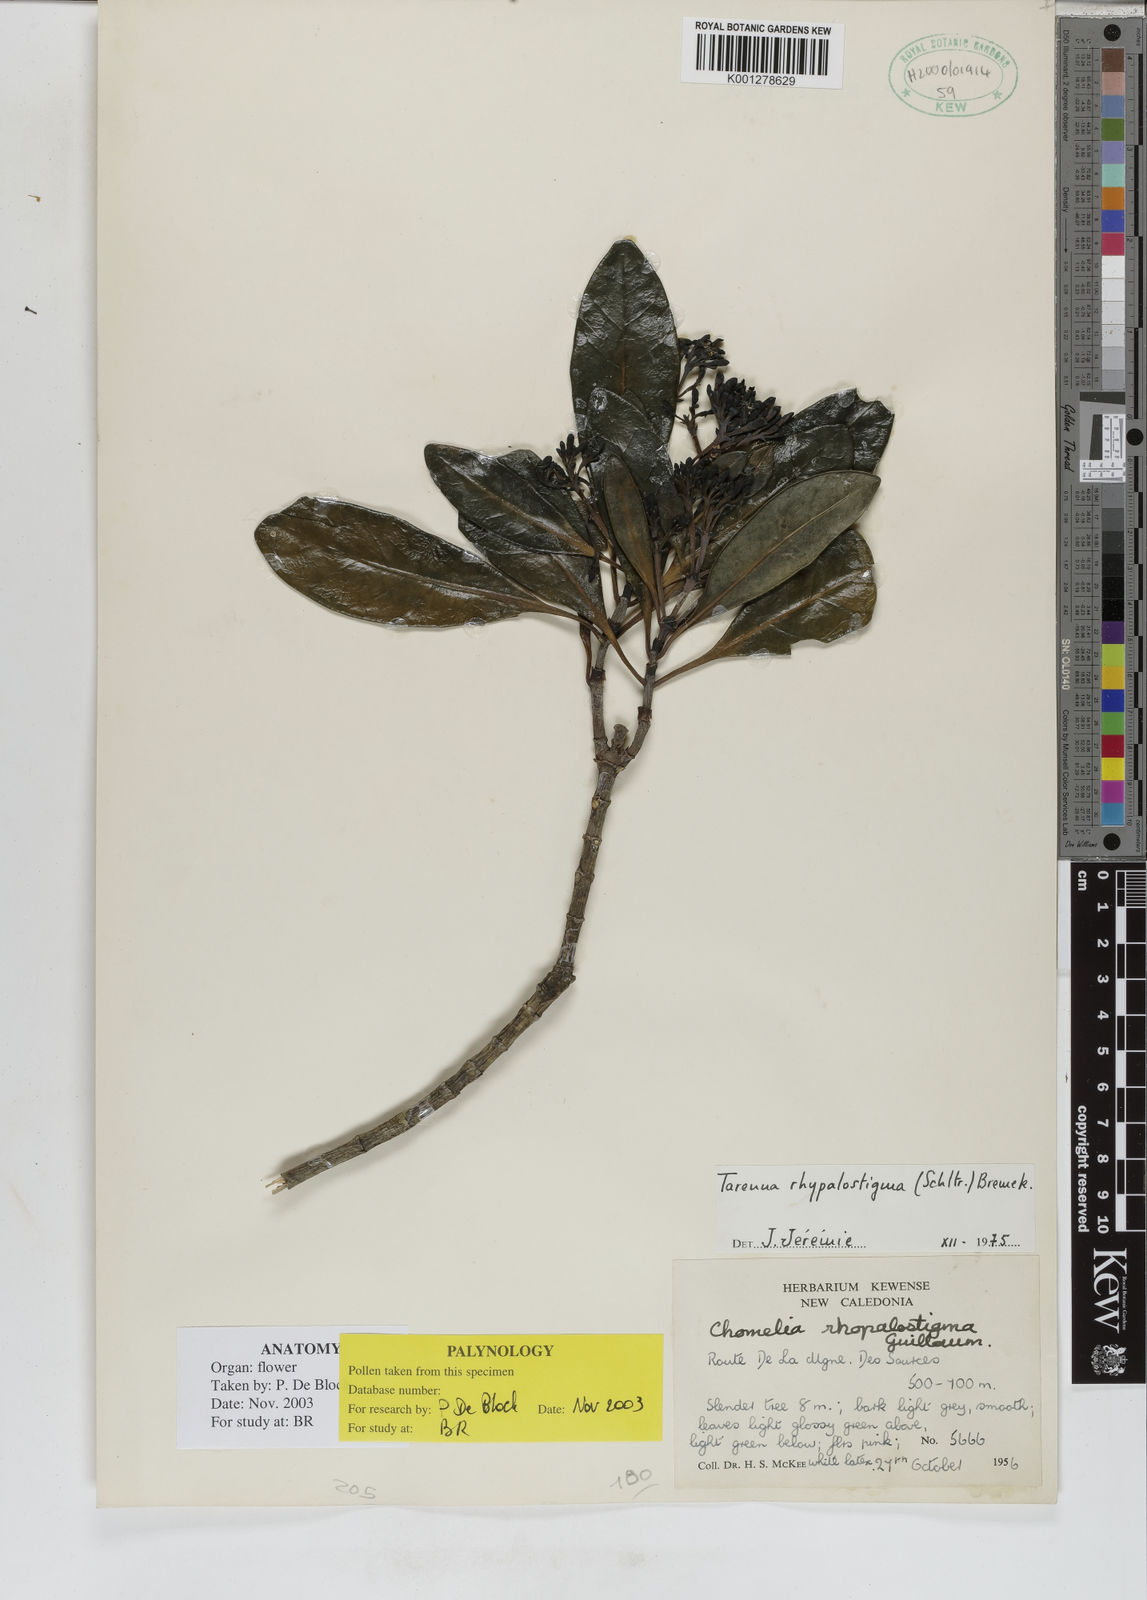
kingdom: Plantae
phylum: Tracheophyta
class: Magnoliopsida
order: Gentianales
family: Rubiaceae
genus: Tarenna
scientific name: Tarenna rhypalostigma
